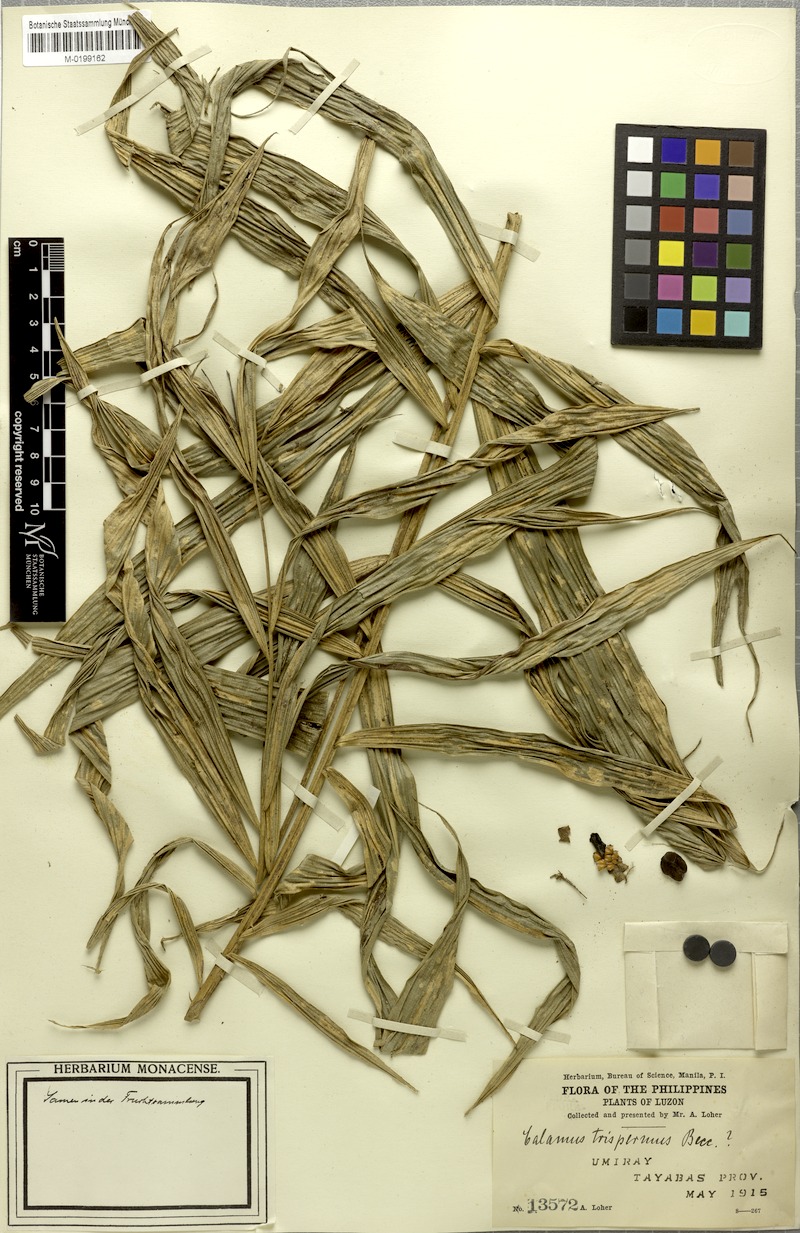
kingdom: Plantae
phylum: Tracheophyta
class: Liliopsida
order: Arecales
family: Arecaceae
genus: Calamus
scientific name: Calamus manillensis
